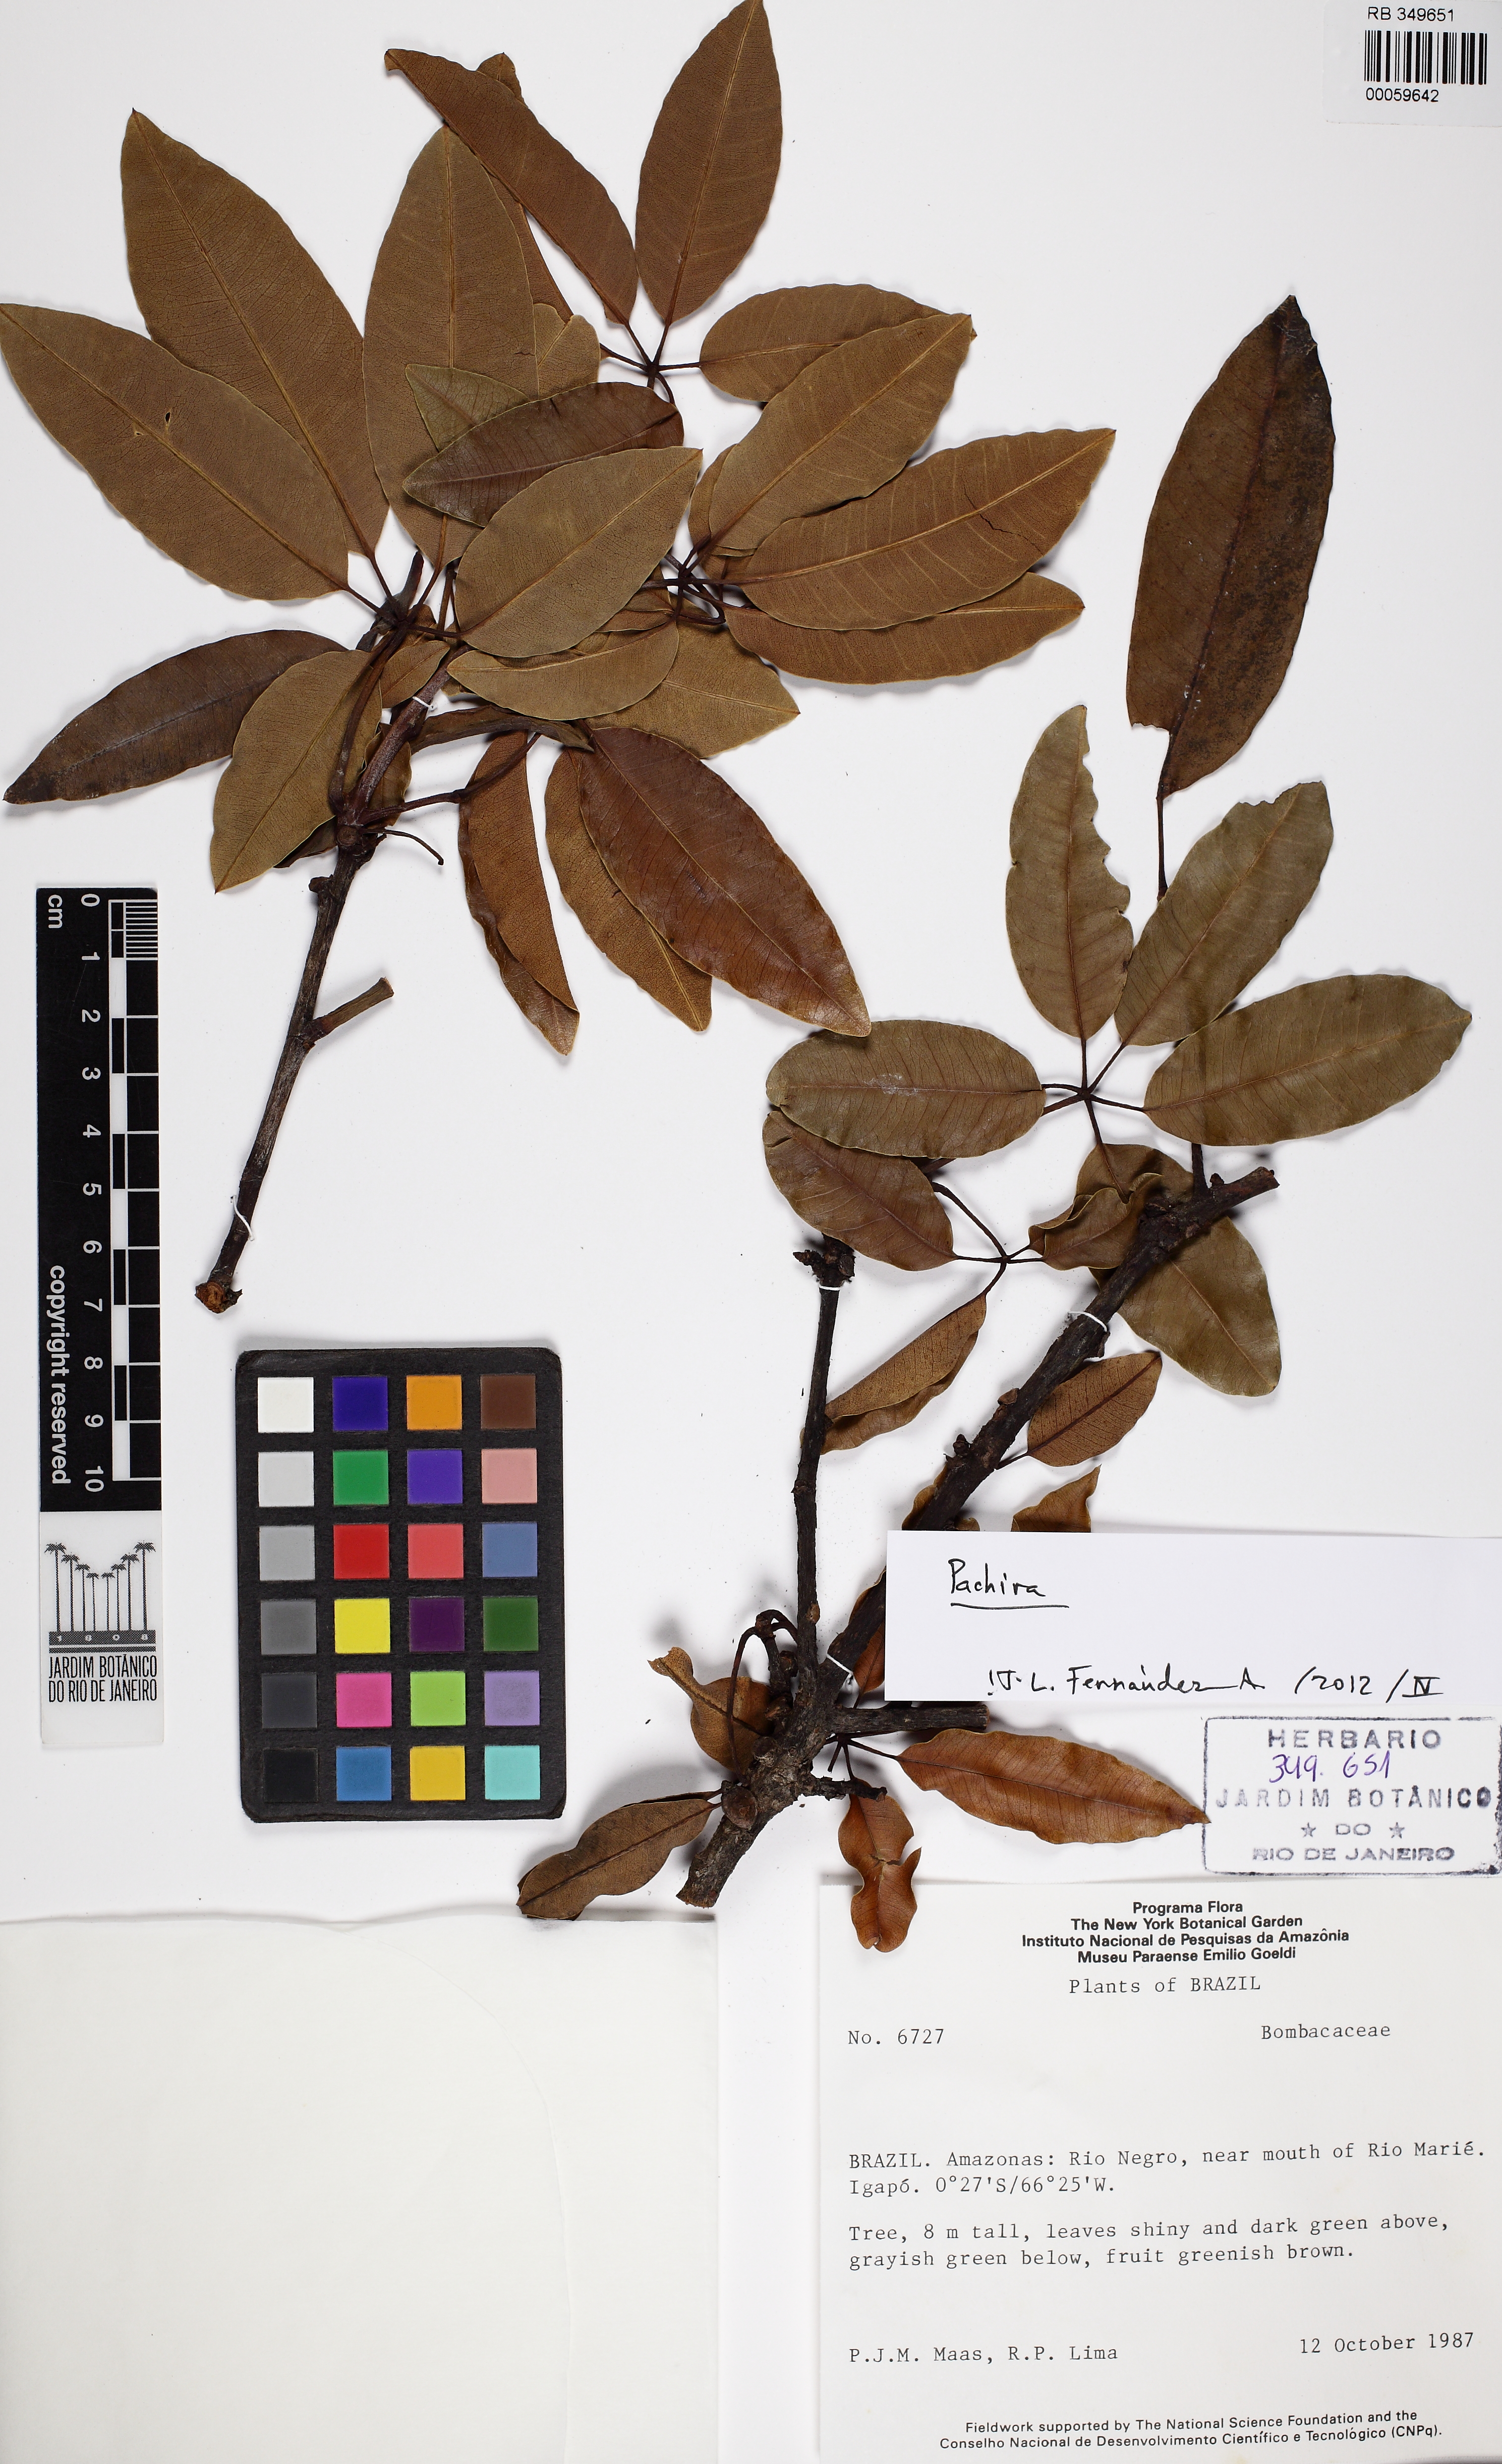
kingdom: Plantae
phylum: Tracheophyta
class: Magnoliopsida
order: Malvales
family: Malvaceae
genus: Pachira
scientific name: Pachira nitida
